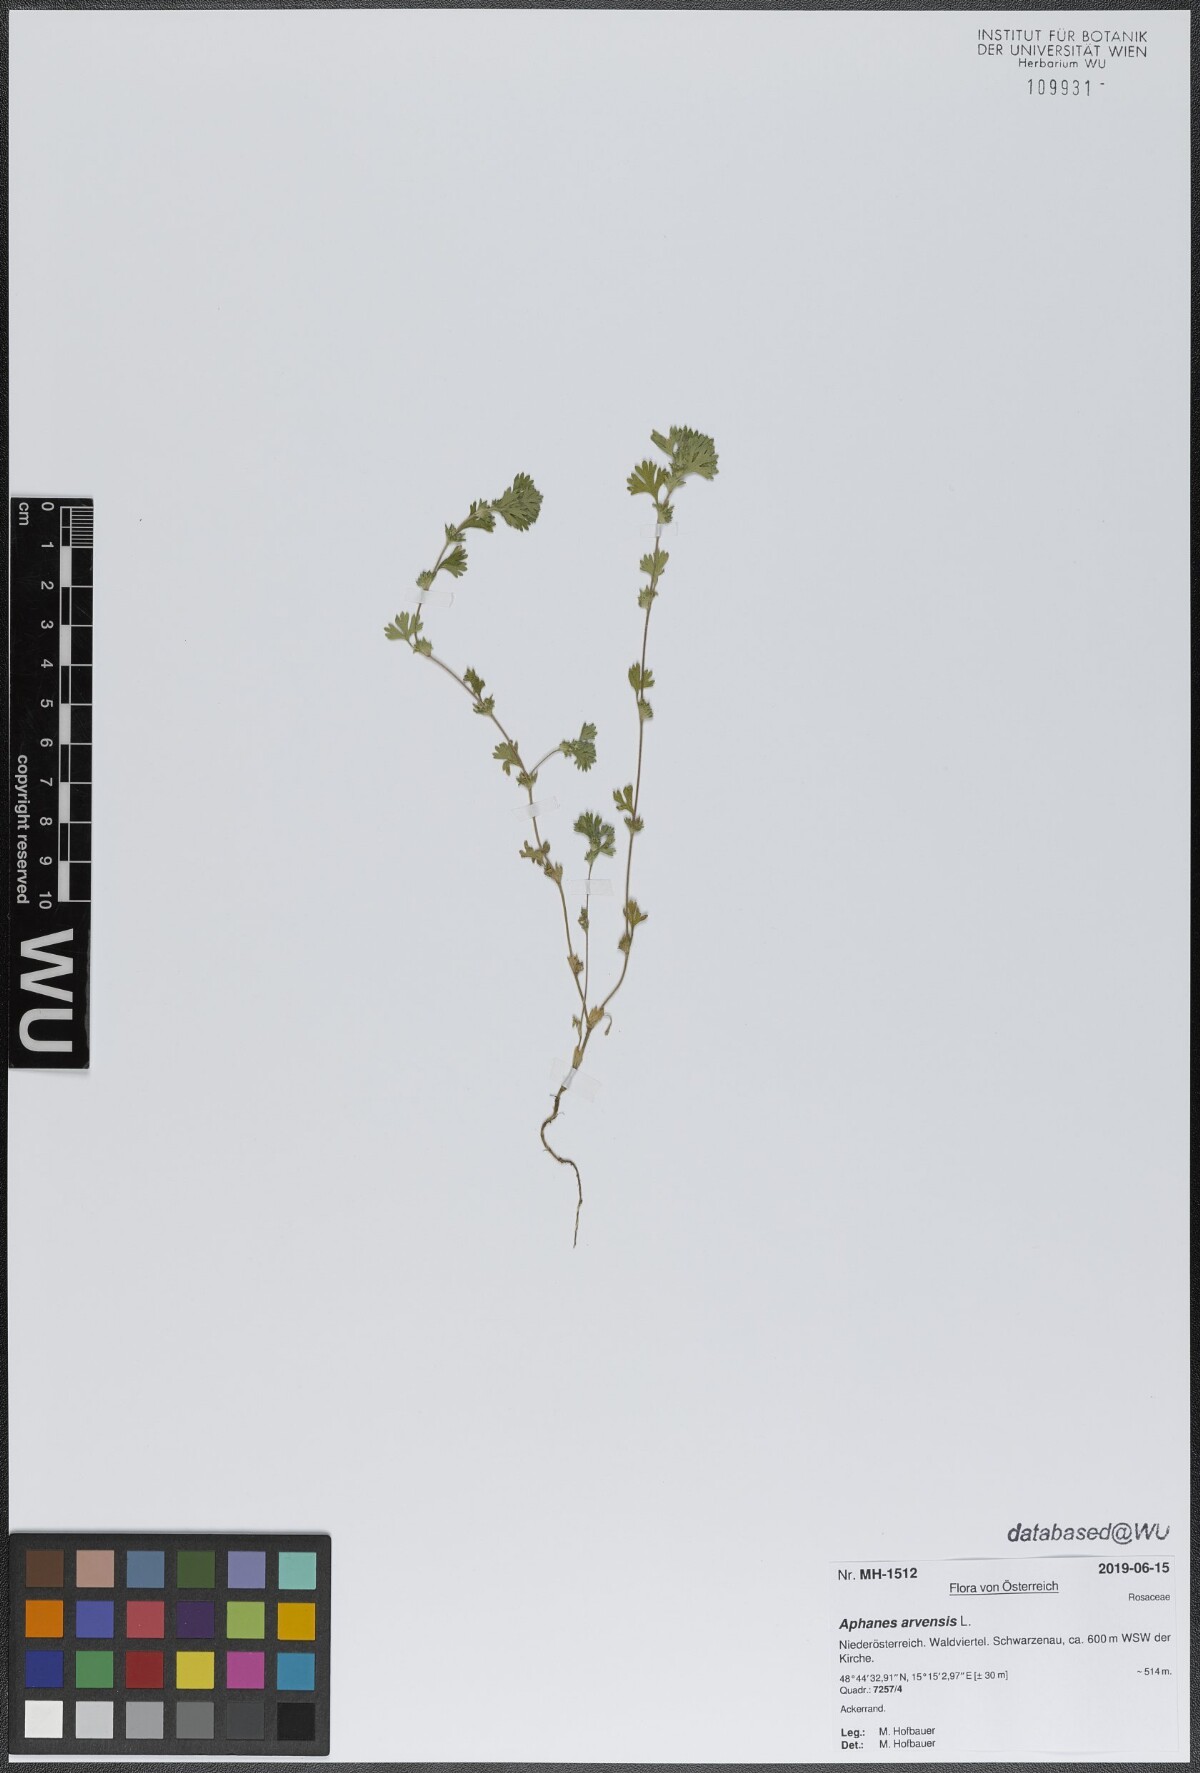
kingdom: Plantae
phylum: Tracheophyta
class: Magnoliopsida
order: Rosales
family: Rosaceae
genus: Aphanes
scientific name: Aphanes arvensis
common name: Parsley-piert
